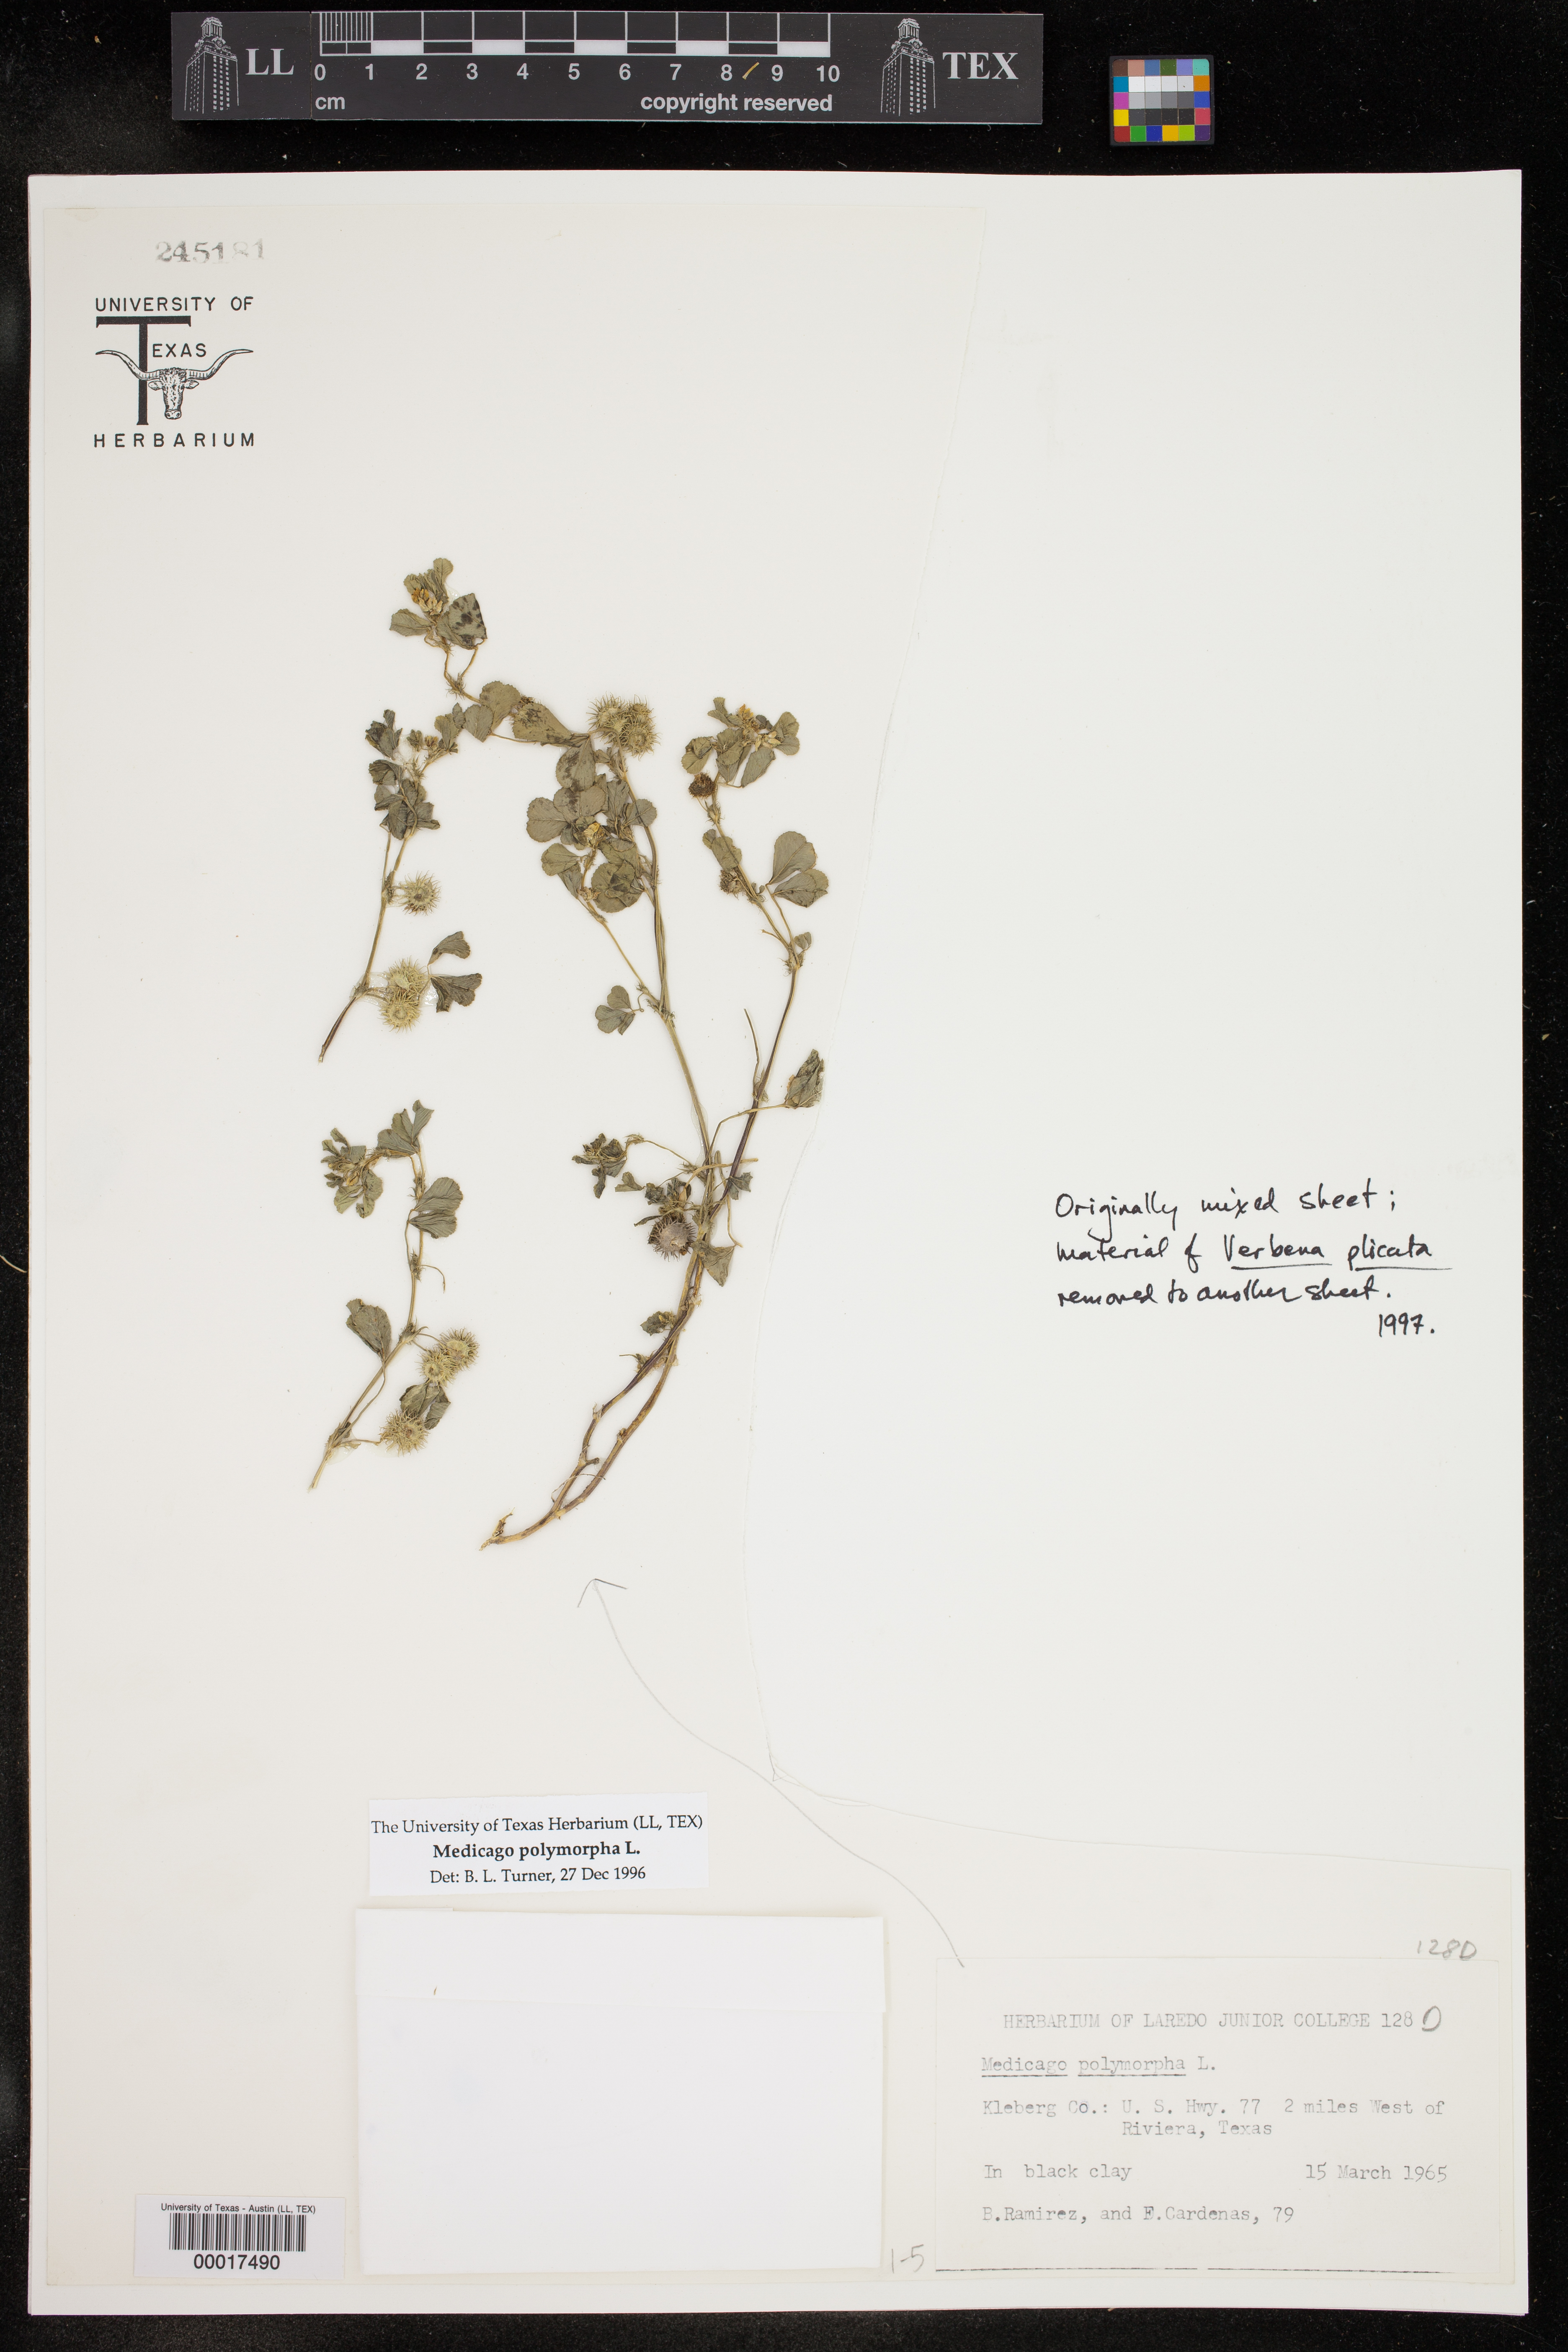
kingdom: Plantae
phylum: Tracheophyta
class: Magnoliopsida
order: Fabales
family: Fabaceae
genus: Medicago
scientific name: Medicago polymorpha
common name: Burclover
